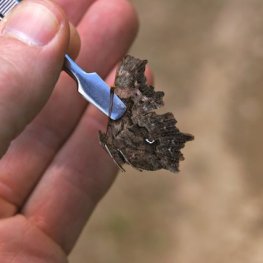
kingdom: Animalia
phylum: Arthropoda
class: Insecta
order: Lepidoptera
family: Nymphalidae
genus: Polygonia
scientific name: Polygonia faunus
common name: Green Comma
